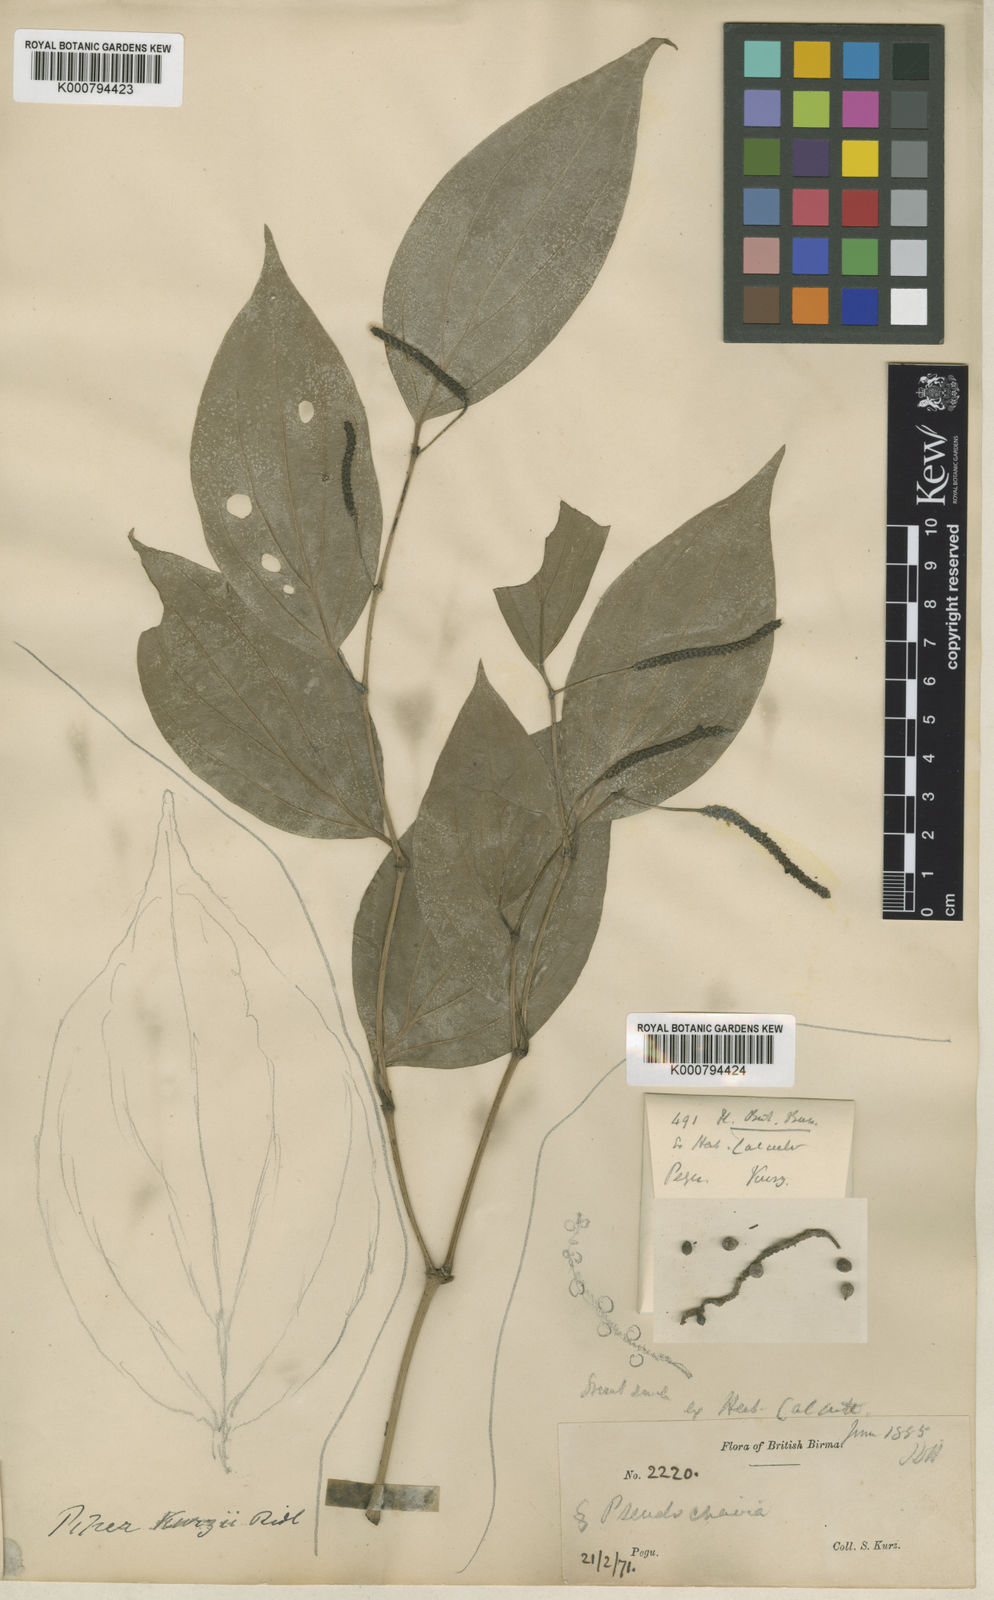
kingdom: Plantae
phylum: Tracheophyta
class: Magnoliopsida
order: Piperales
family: Piperaceae
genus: Piper
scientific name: Piper kurzii
